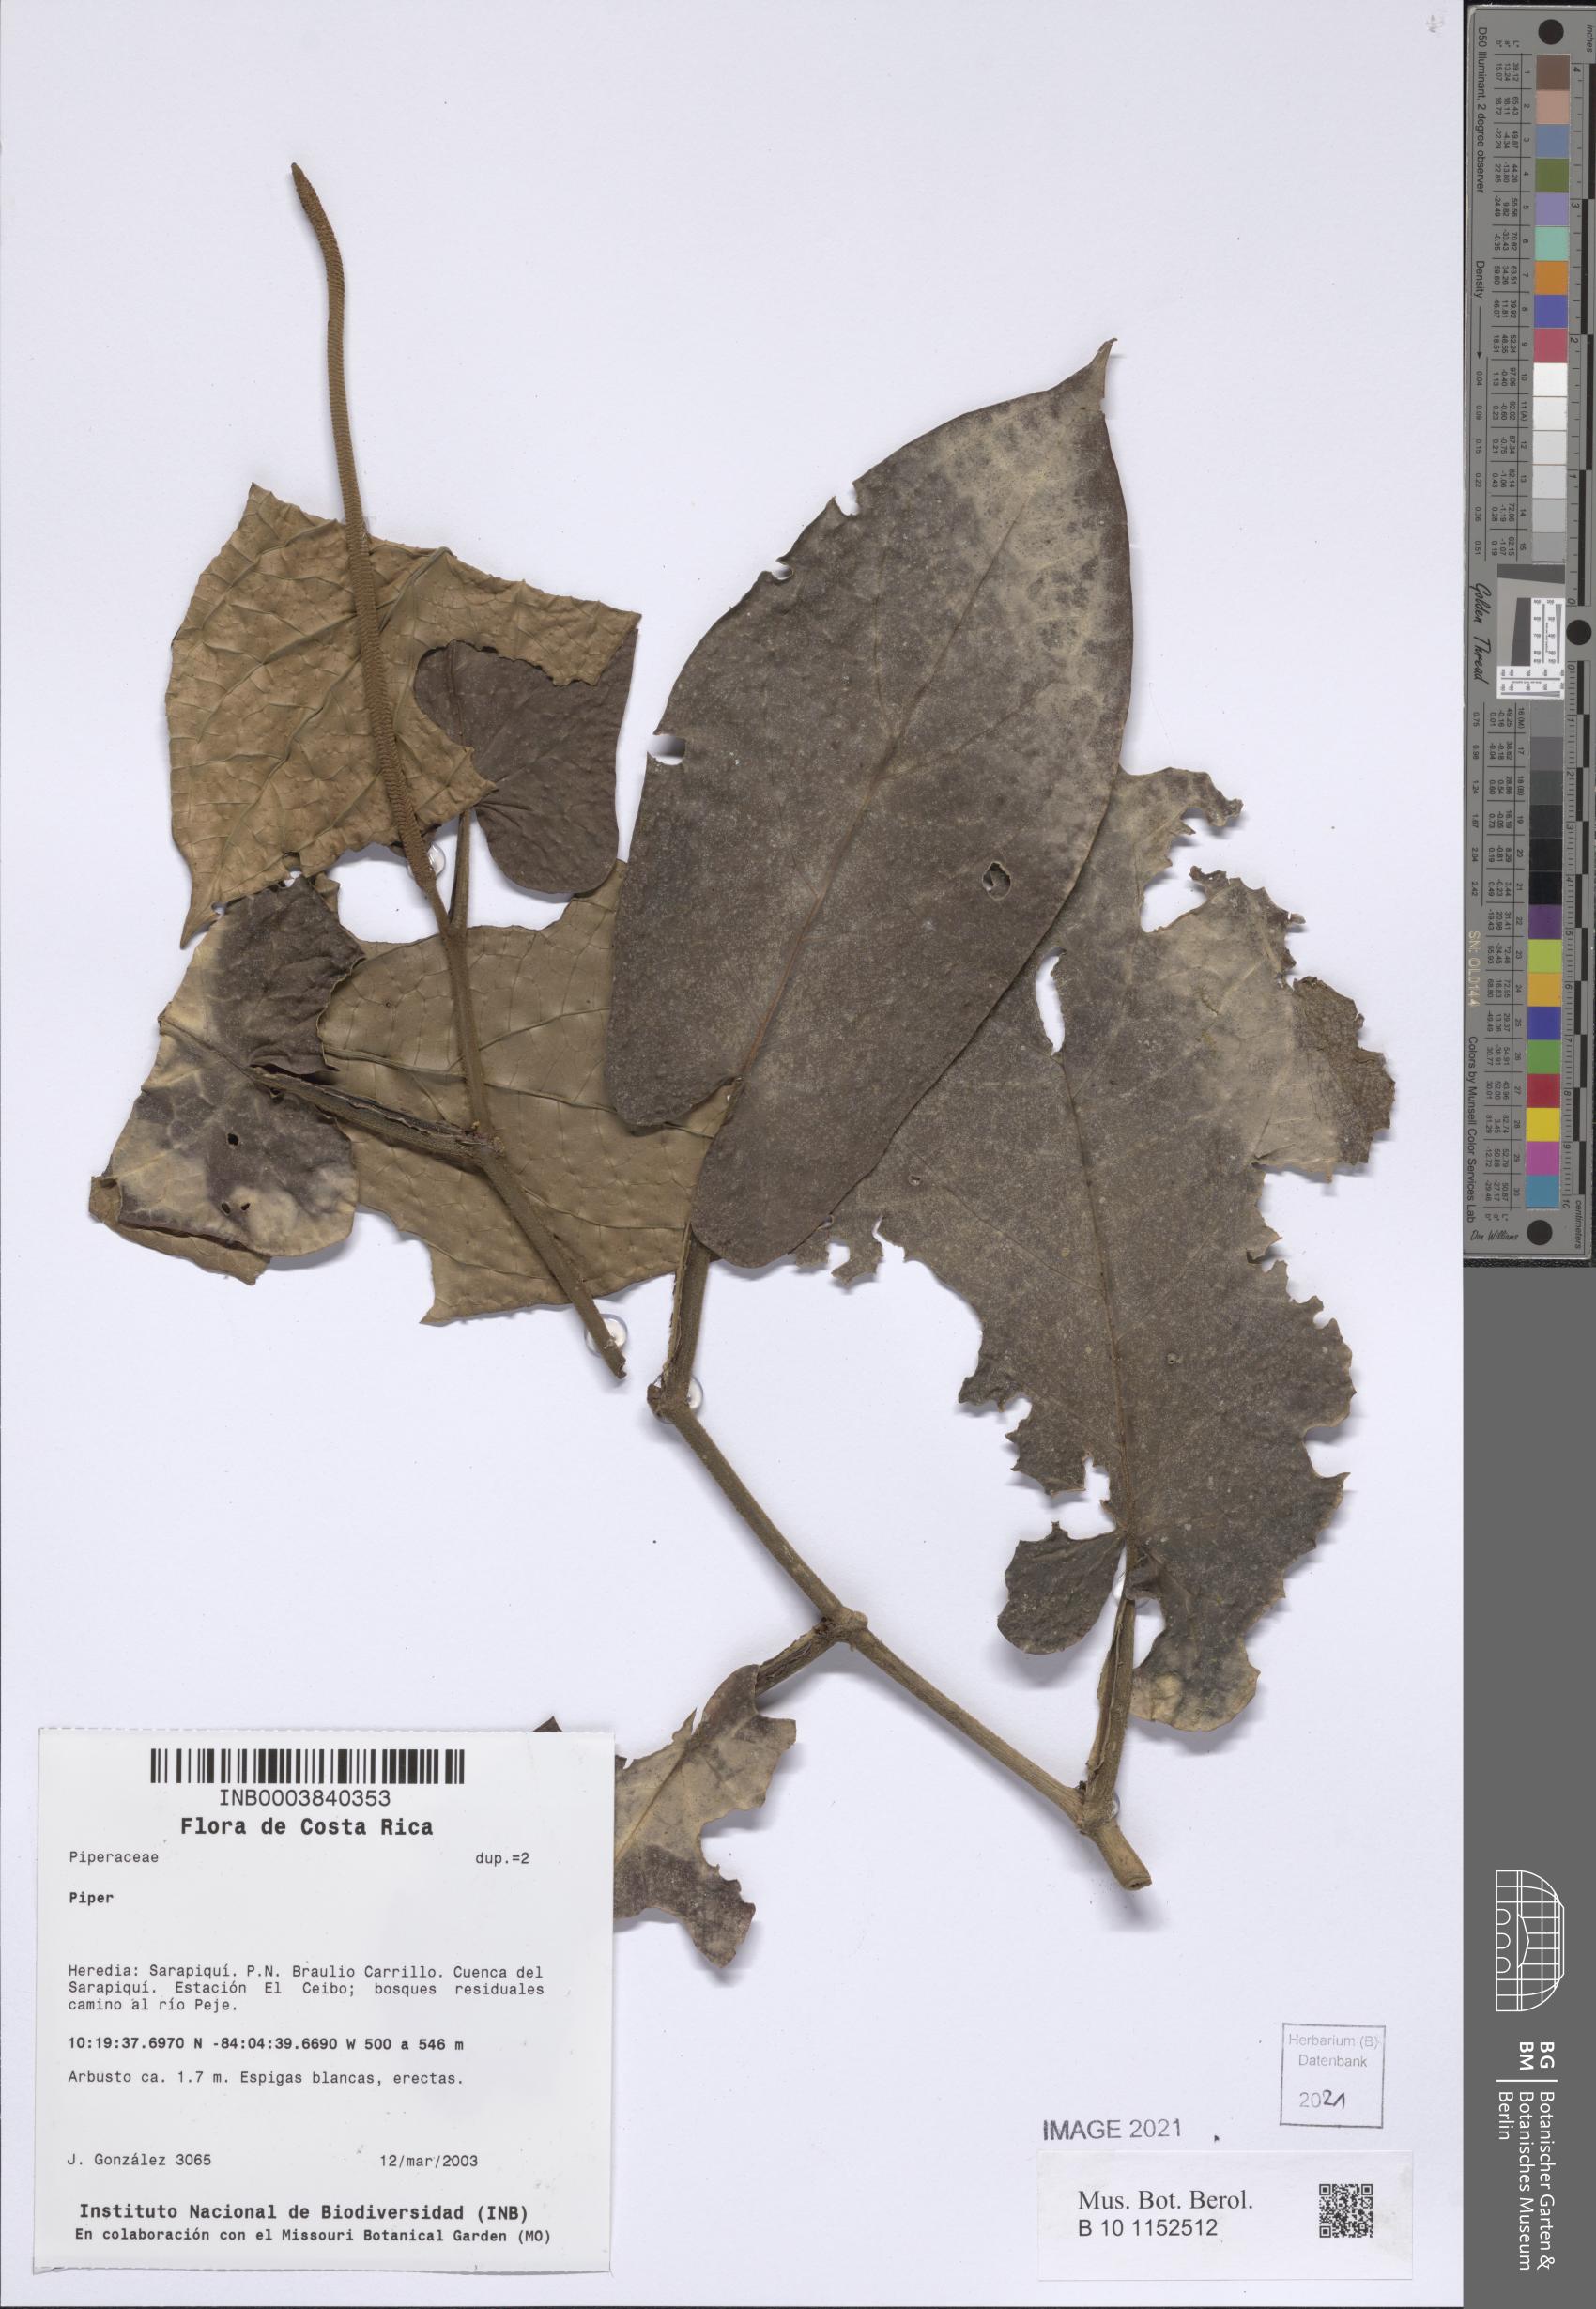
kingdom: Plantae
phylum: Tracheophyta
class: Magnoliopsida
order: Piperales
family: Piperaceae
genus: Piper
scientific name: Piper
